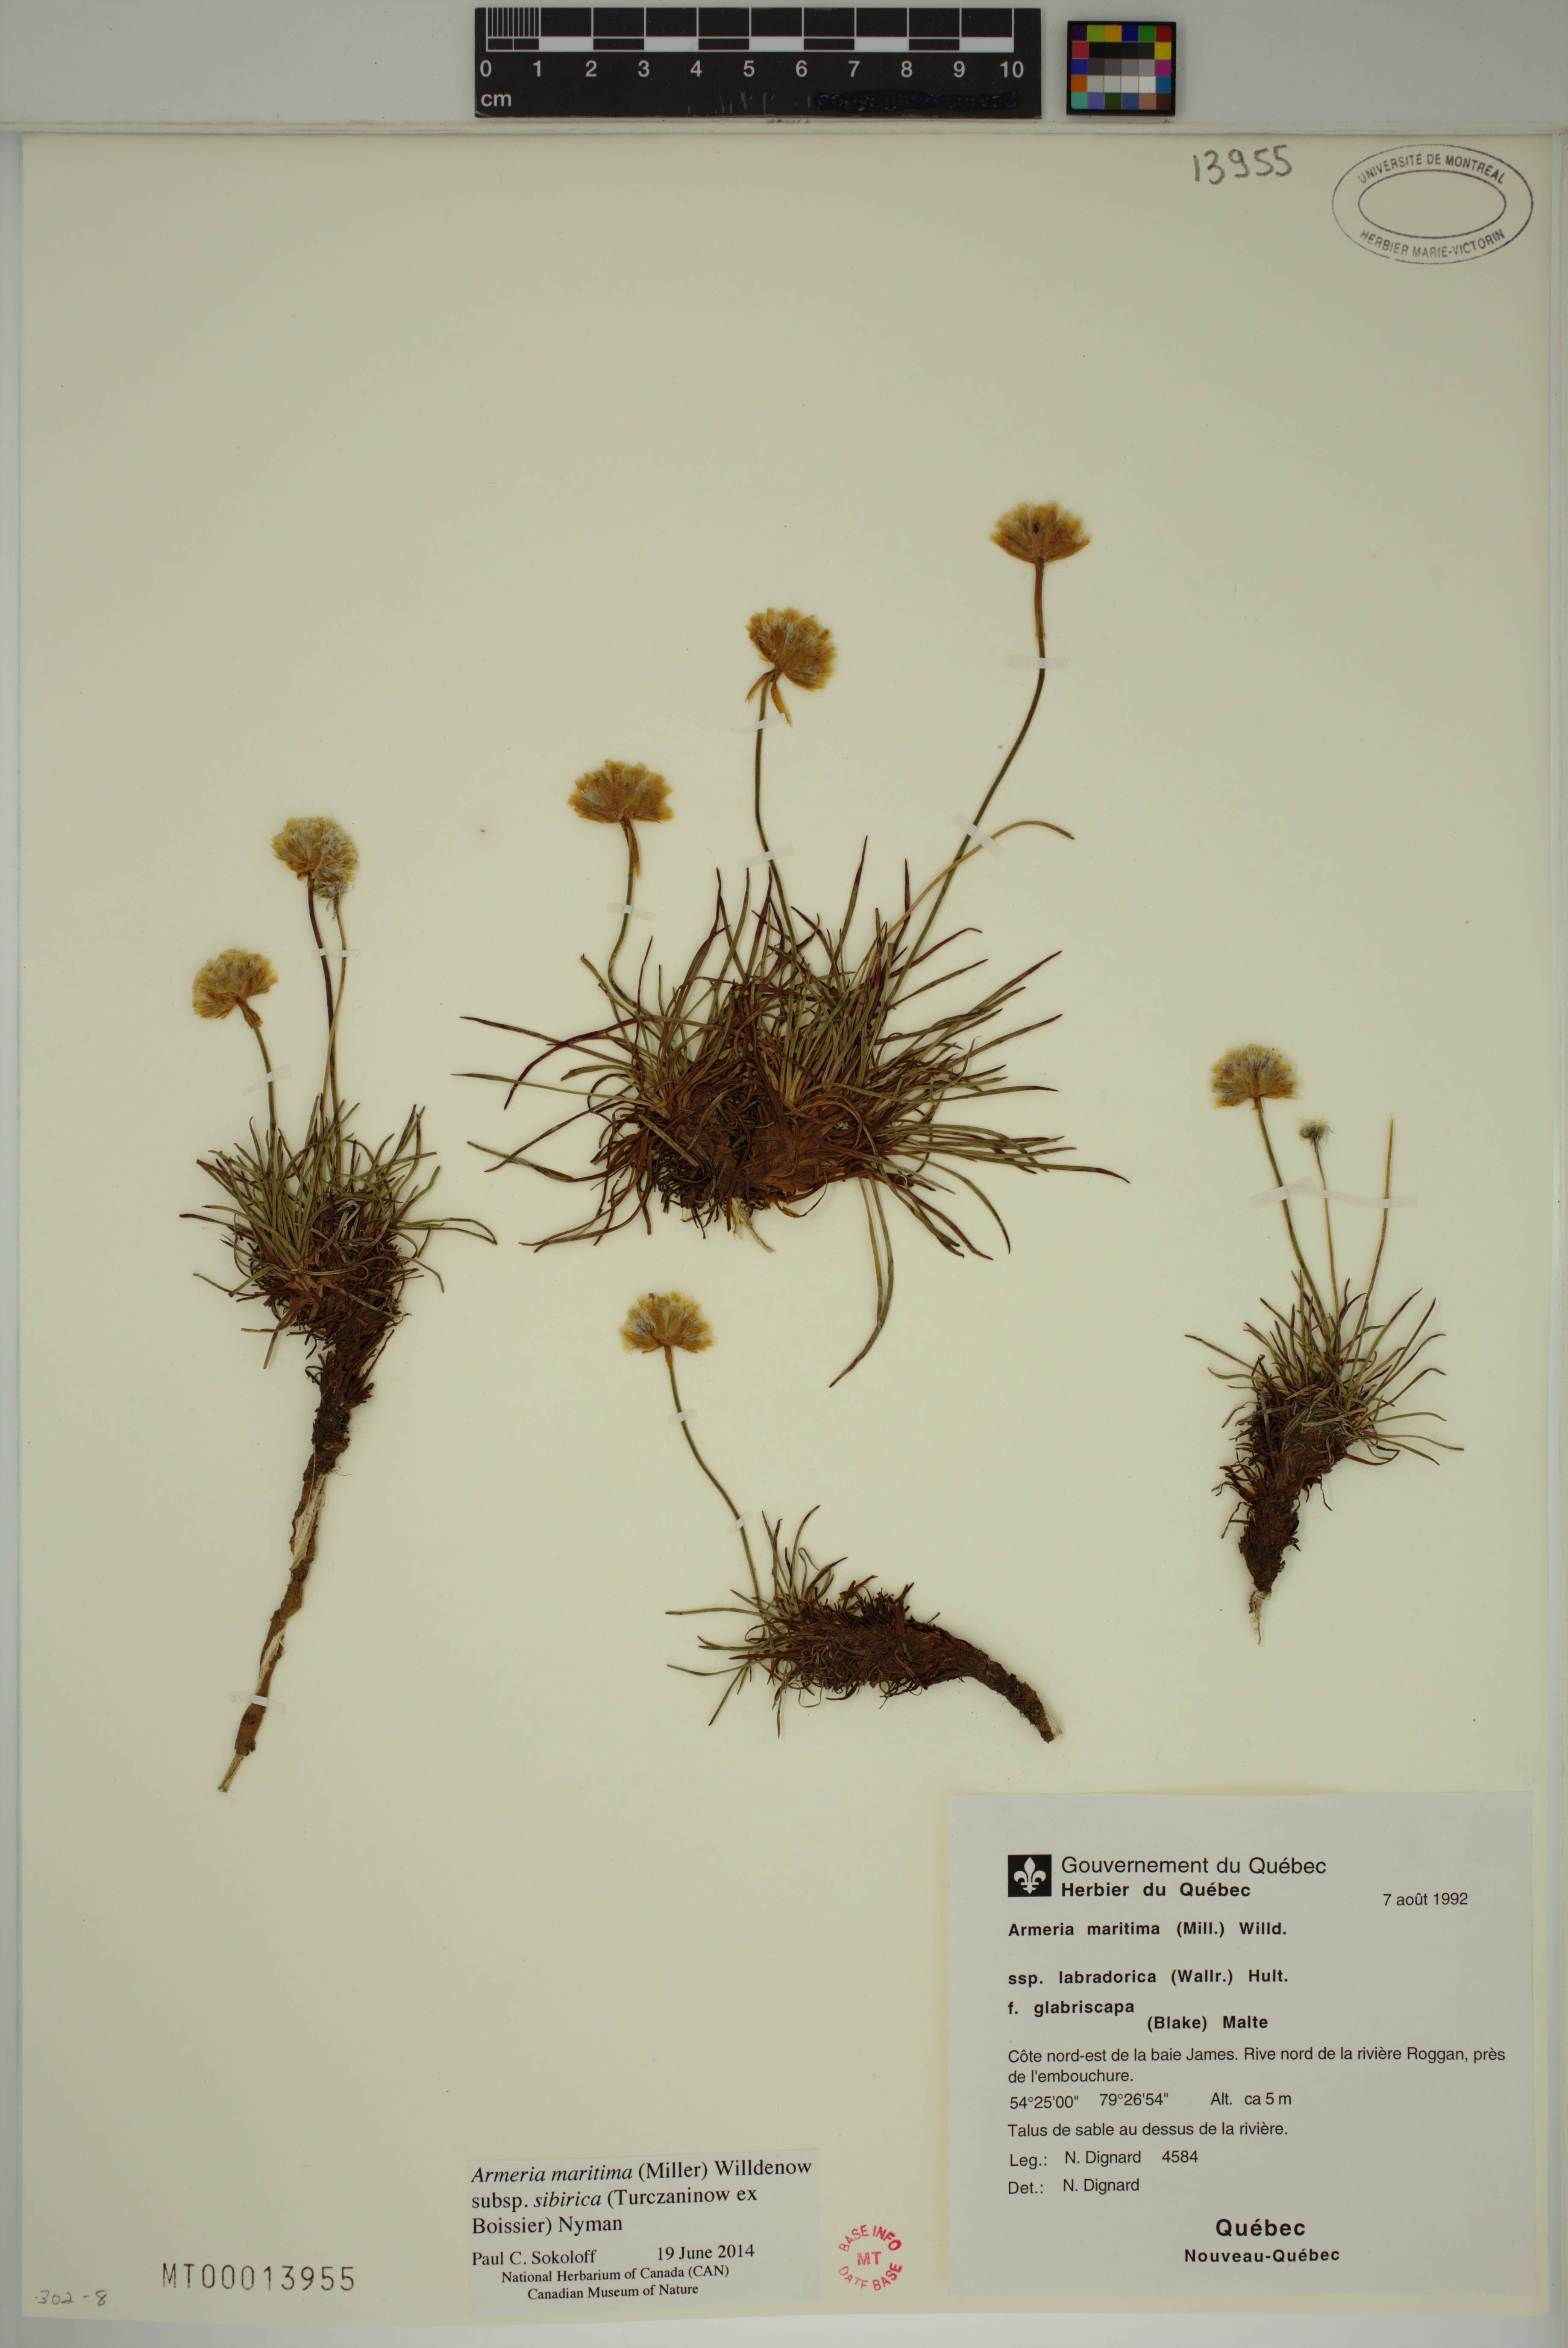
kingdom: Plantae
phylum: Tracheophyta
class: Magnoliopsida
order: Caryophyllales
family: Plumbaginaceae
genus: Armeria
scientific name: Armeria maritima
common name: Thrift
